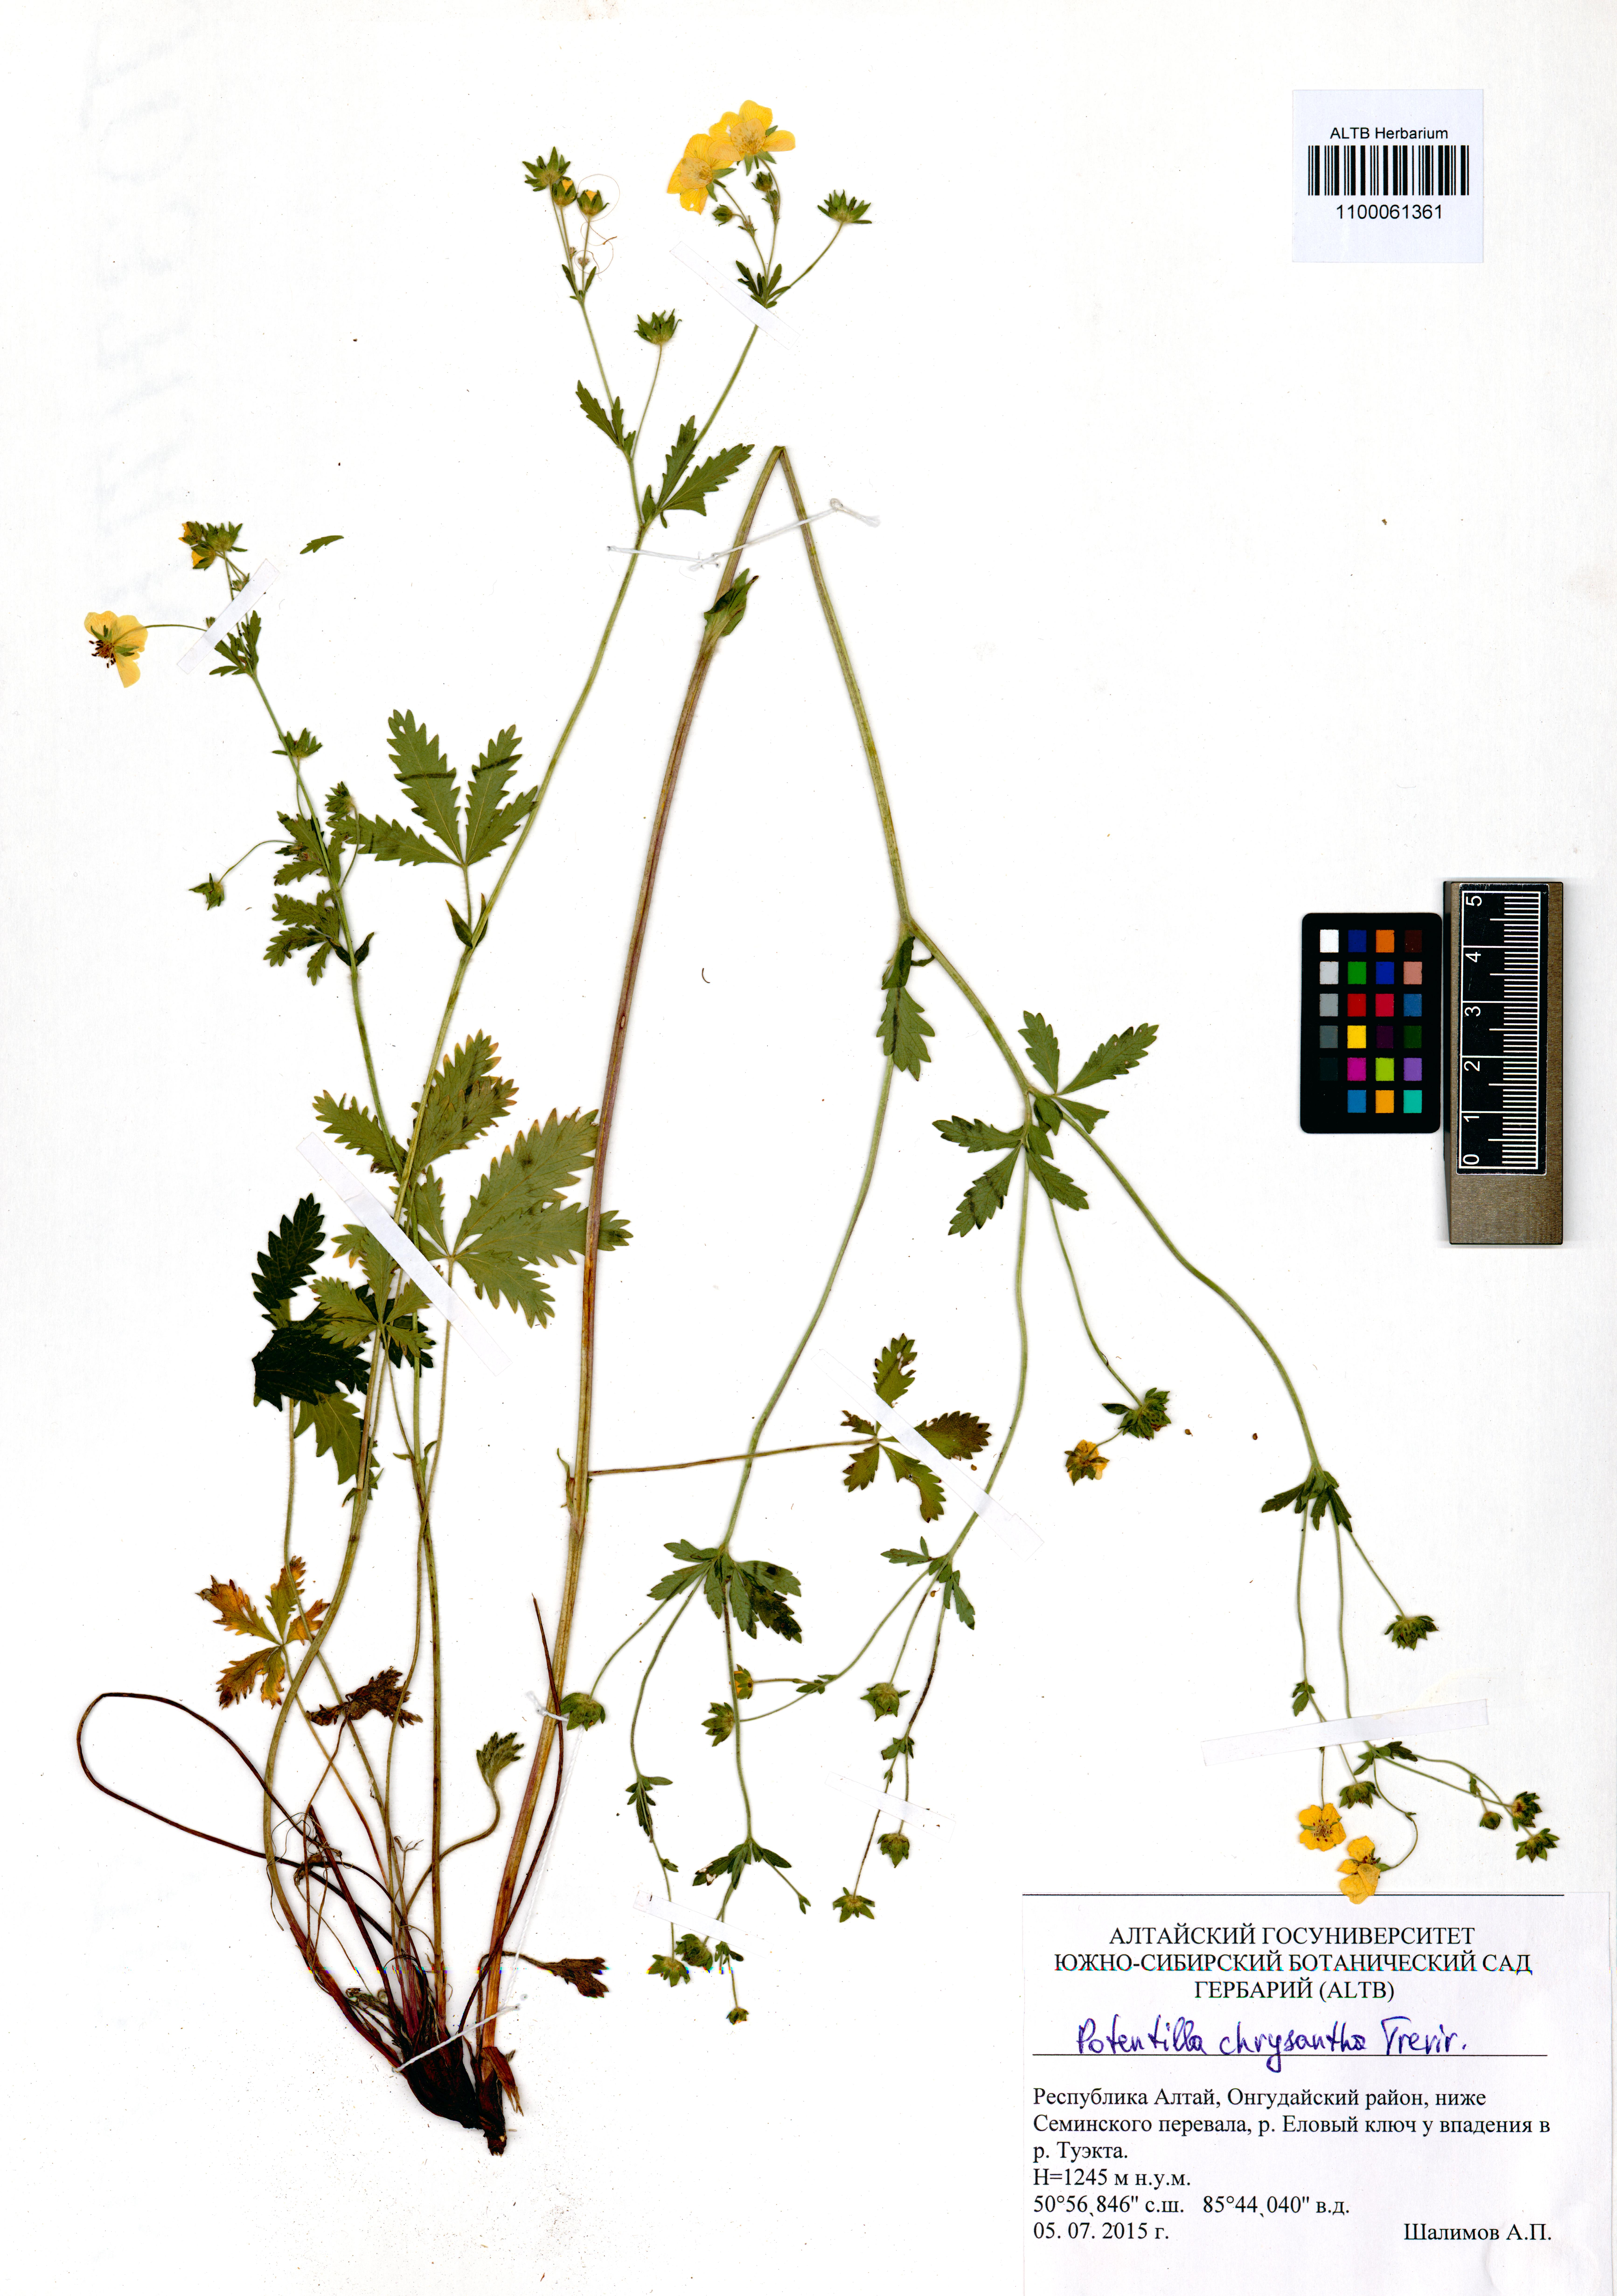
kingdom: Plantae
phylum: Tracheophyta
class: Magnoliopsida
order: Rosales
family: Rosaceae
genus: Potentilla
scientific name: Potentilla chrysantha
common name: Thuringian cinquefoil
